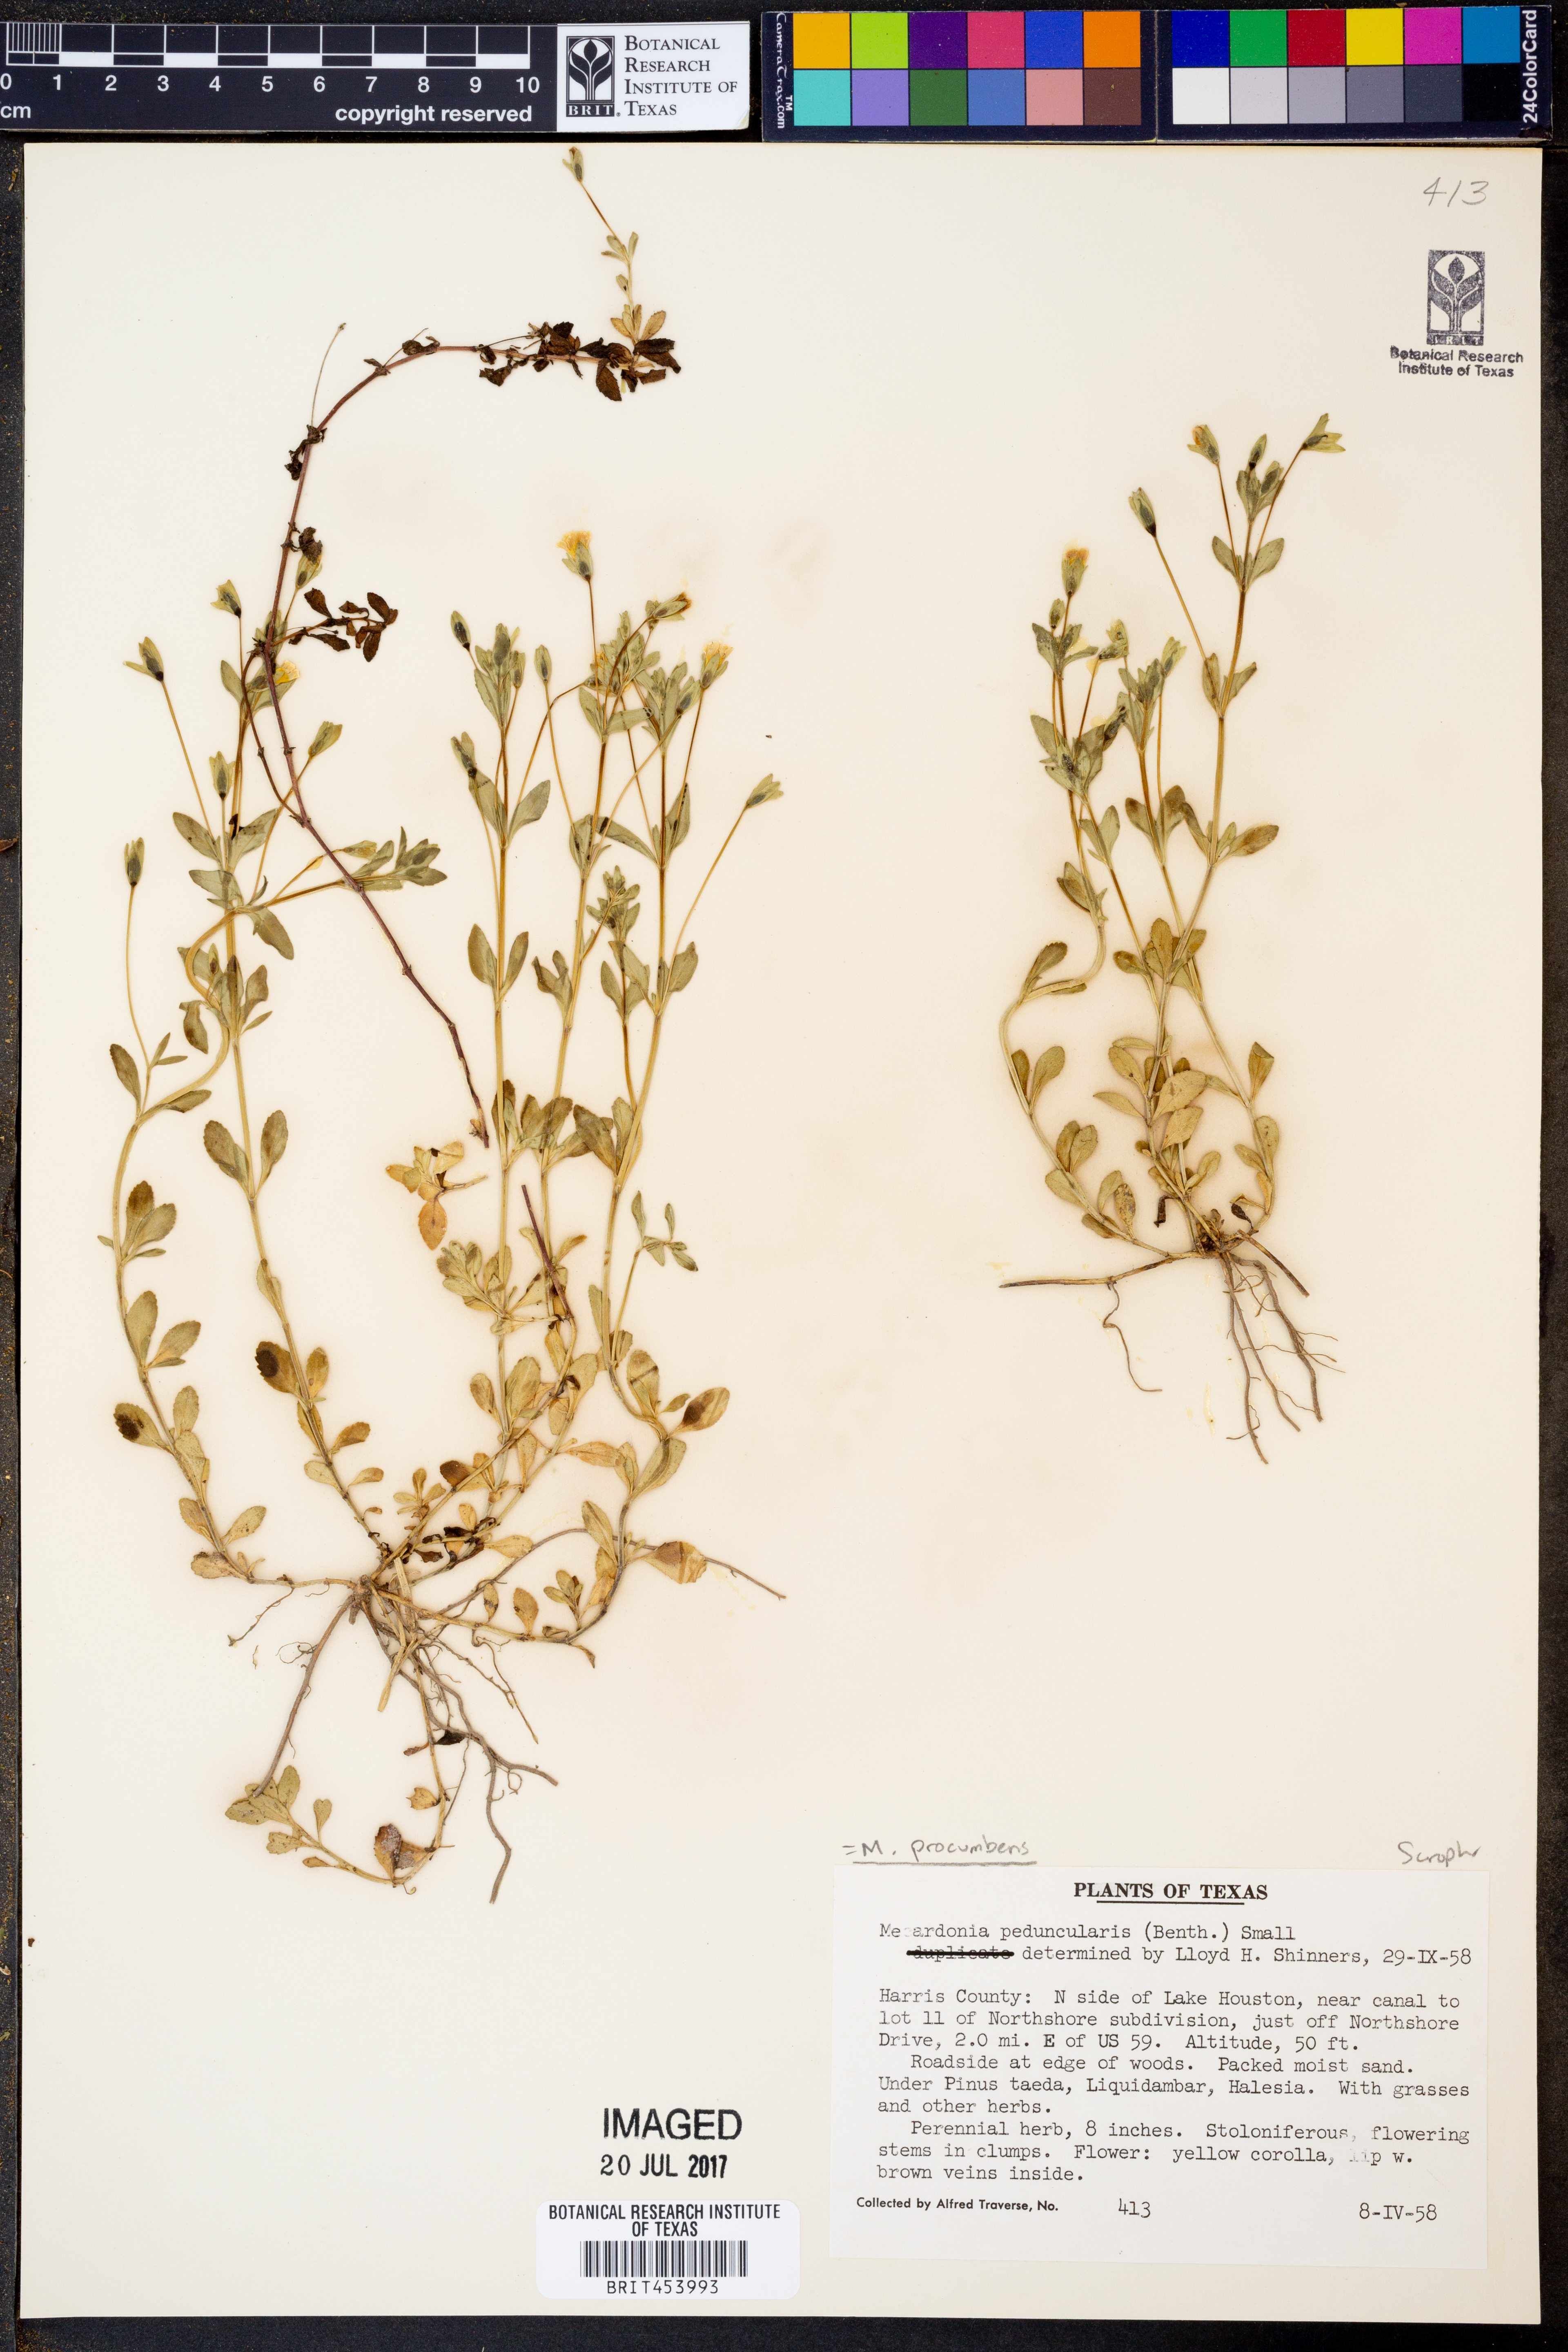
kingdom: Plantae
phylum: Tracheophyta
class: Magnoliopsida
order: Lamiales
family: Plantaginaceae
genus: Mecardonia
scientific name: Mecardonia procumbens
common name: Baby jump-up
